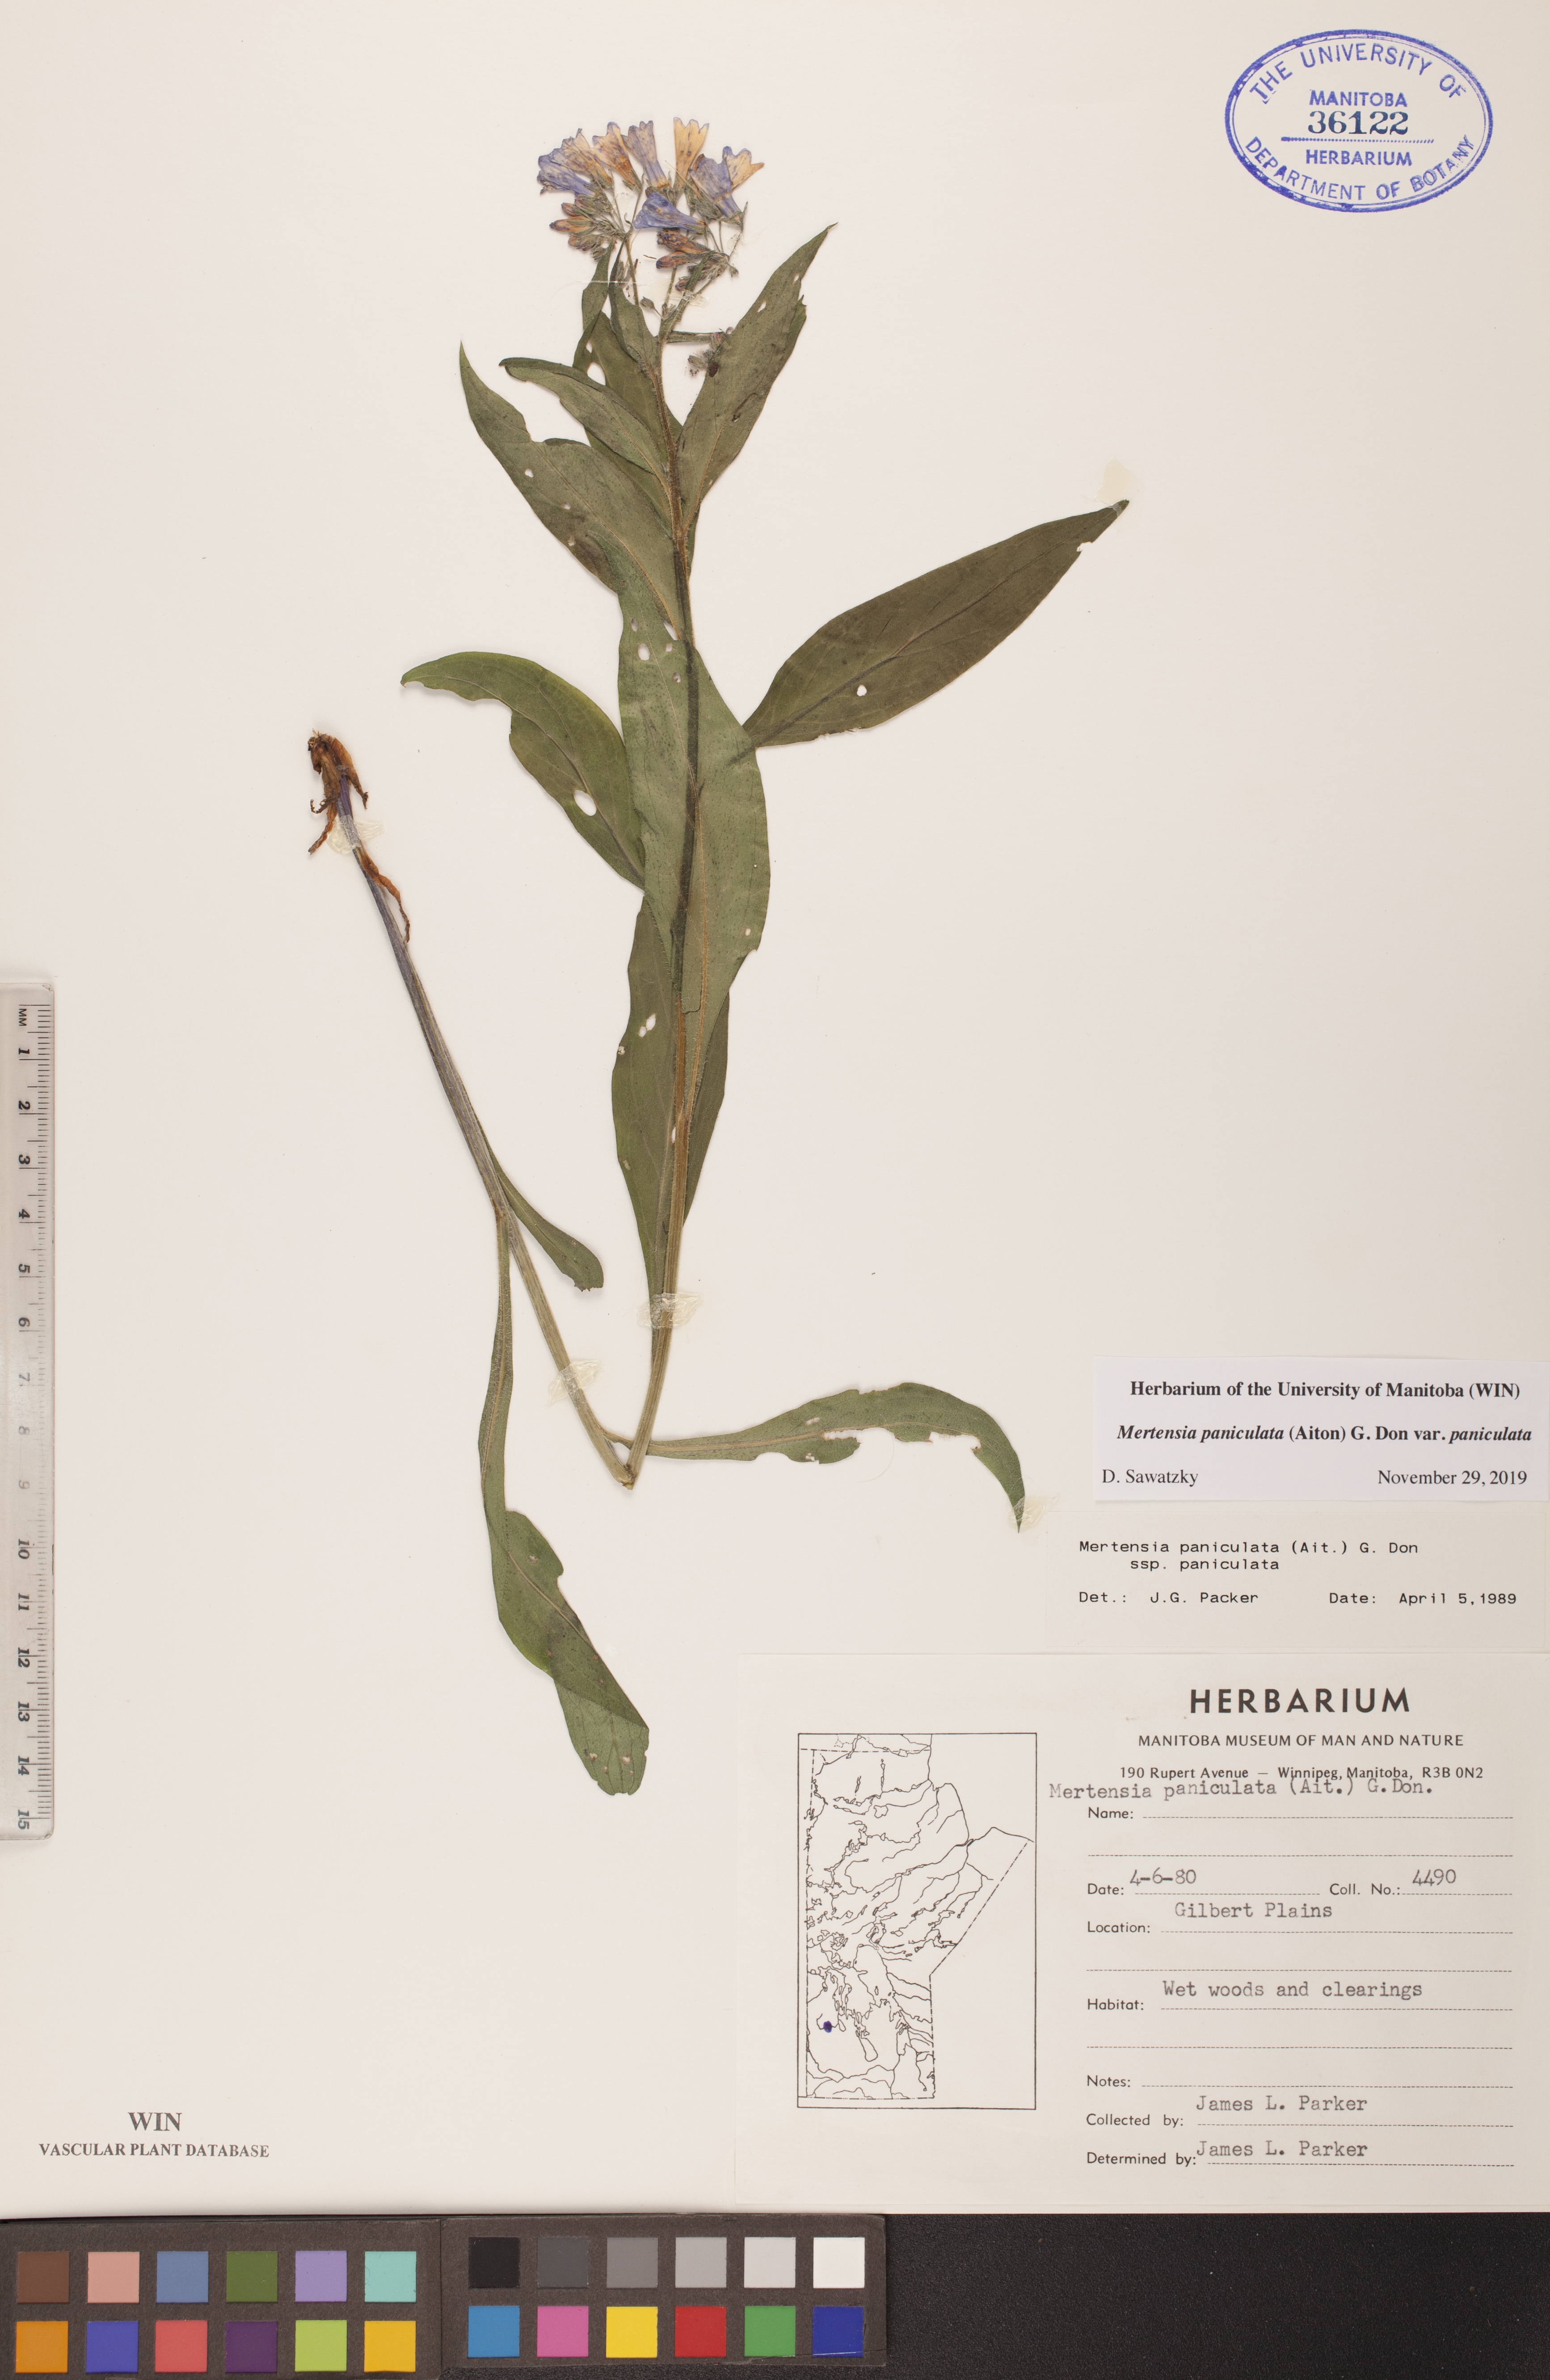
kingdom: Plantae
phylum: Tracheophyta
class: Magnoliopsida
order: Boraginales
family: Boraginaceae
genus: Mertensia
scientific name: Mertensia paniculata
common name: Panicled bluebells
